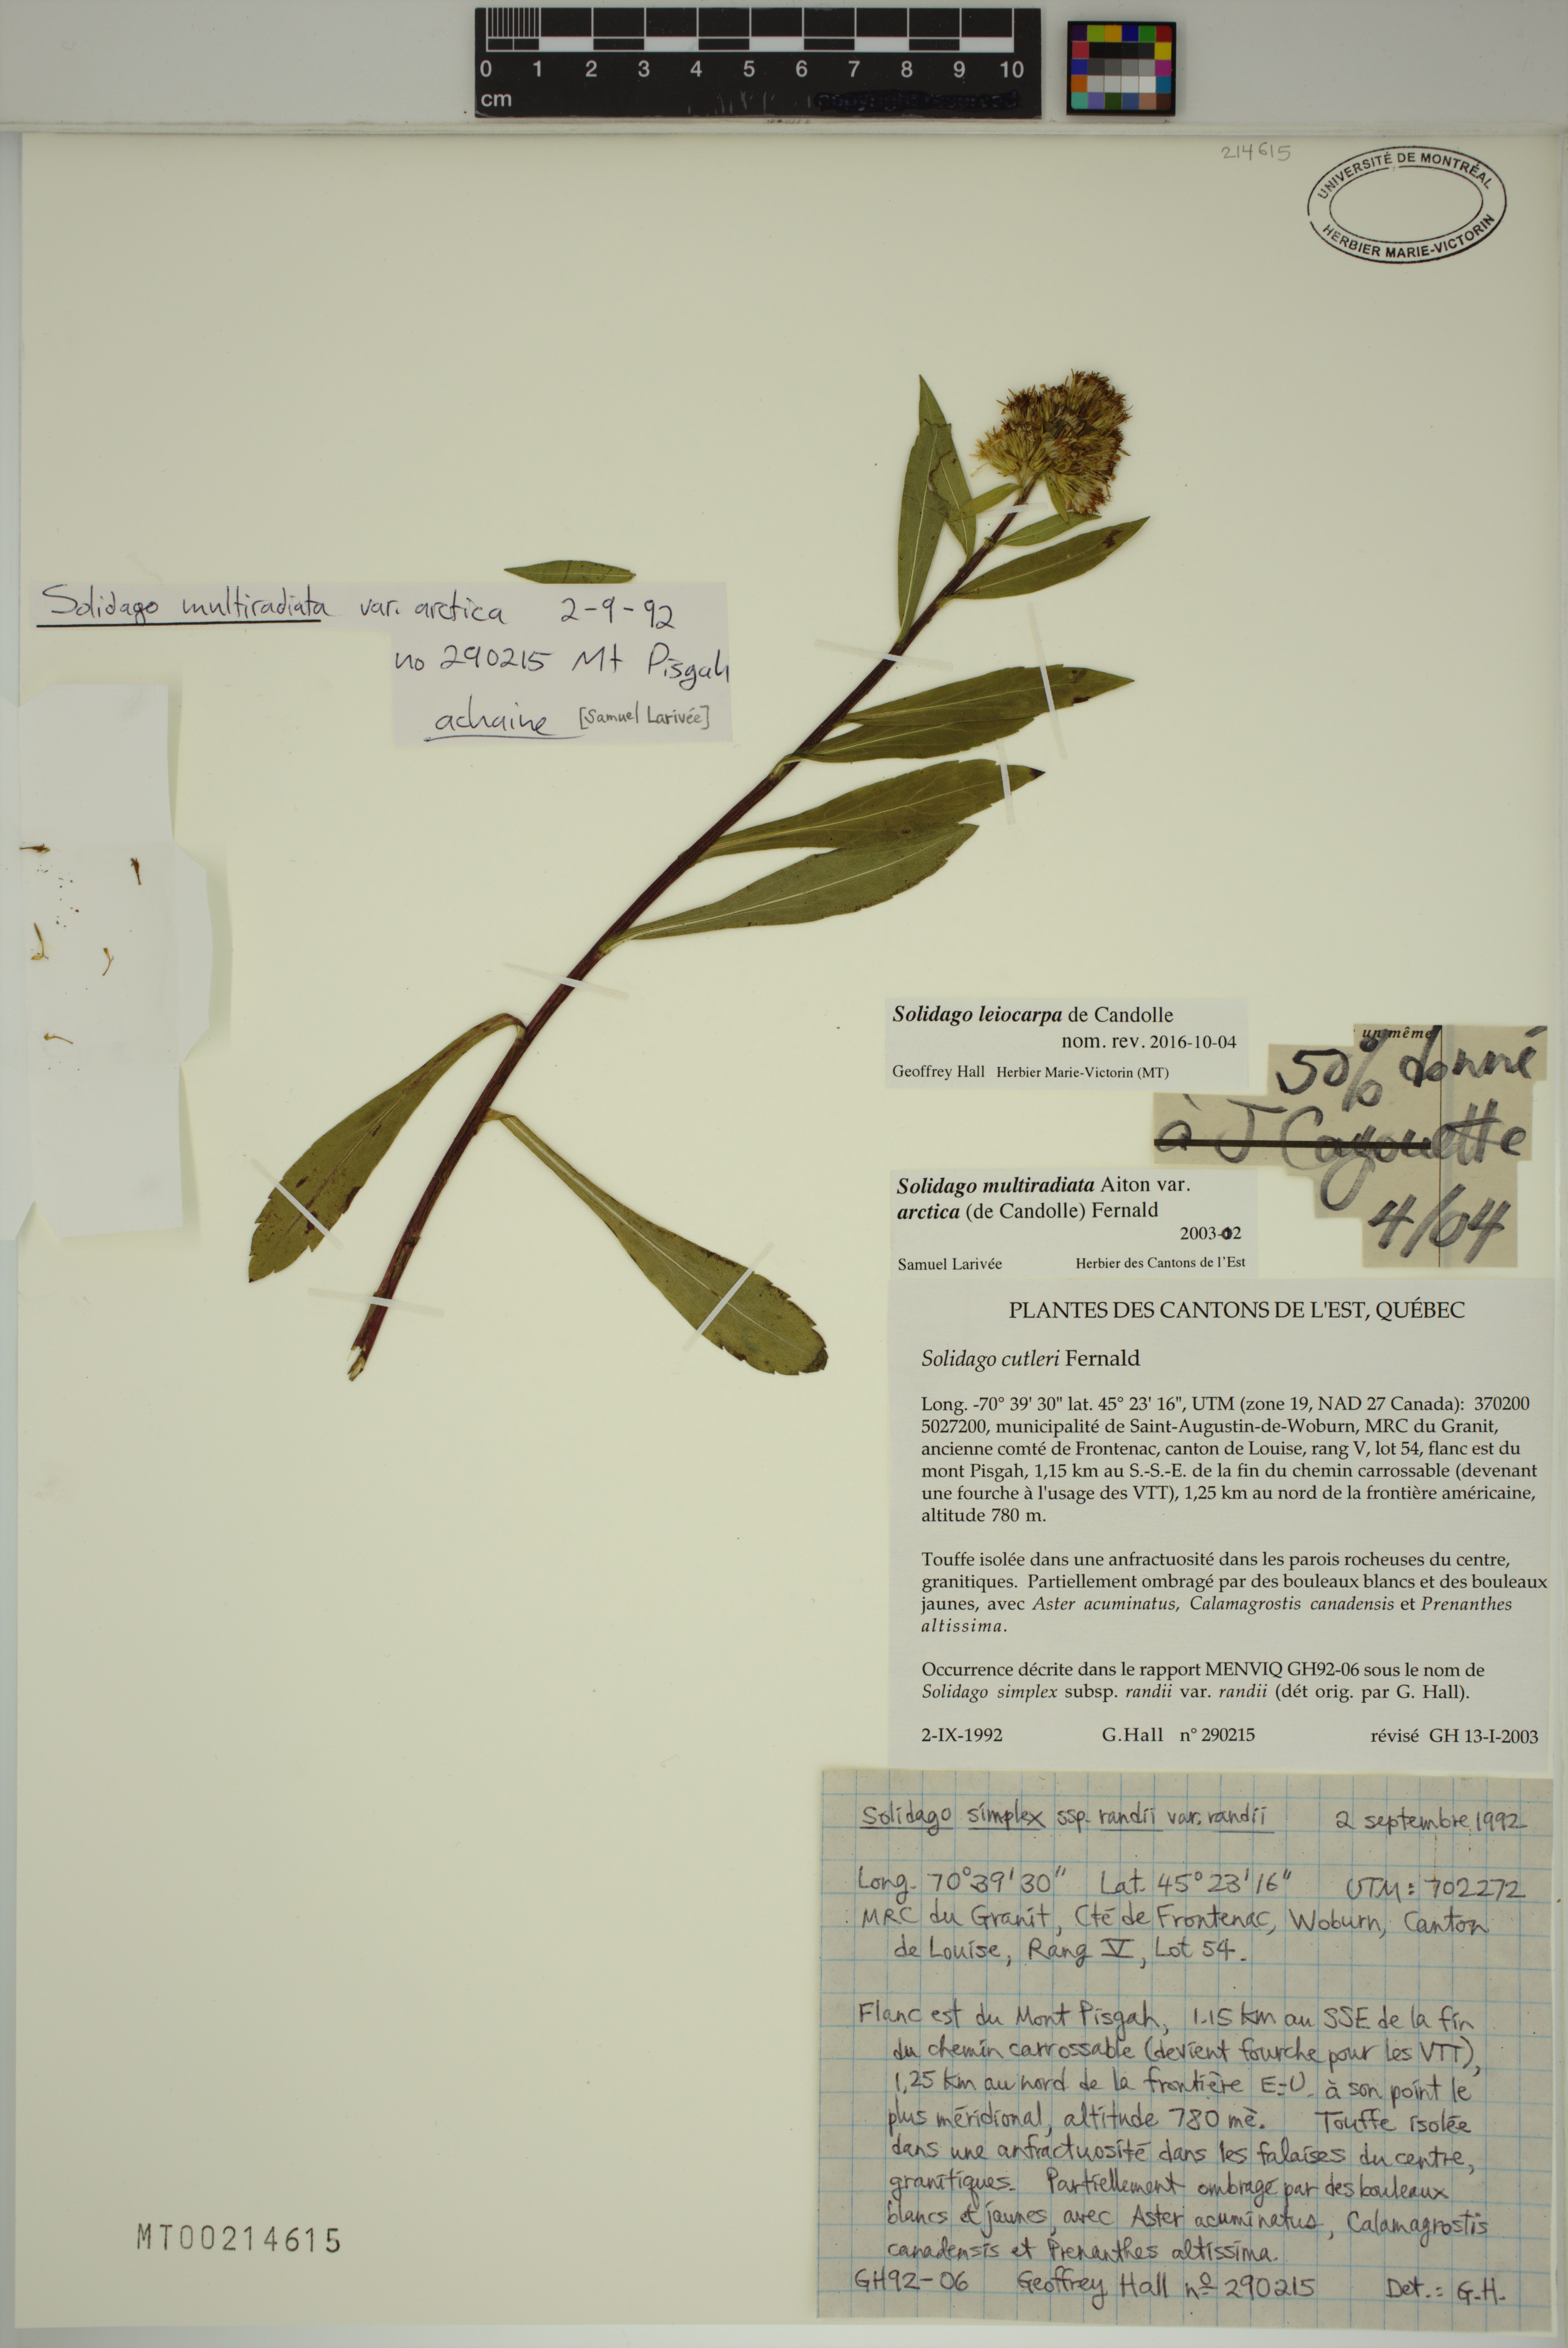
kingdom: Plantae
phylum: Tracheophyta
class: Magnoliopsida
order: Asterales
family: Asteraceae
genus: Solidago
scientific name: Solidago randii
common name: Rand's goldenrod
